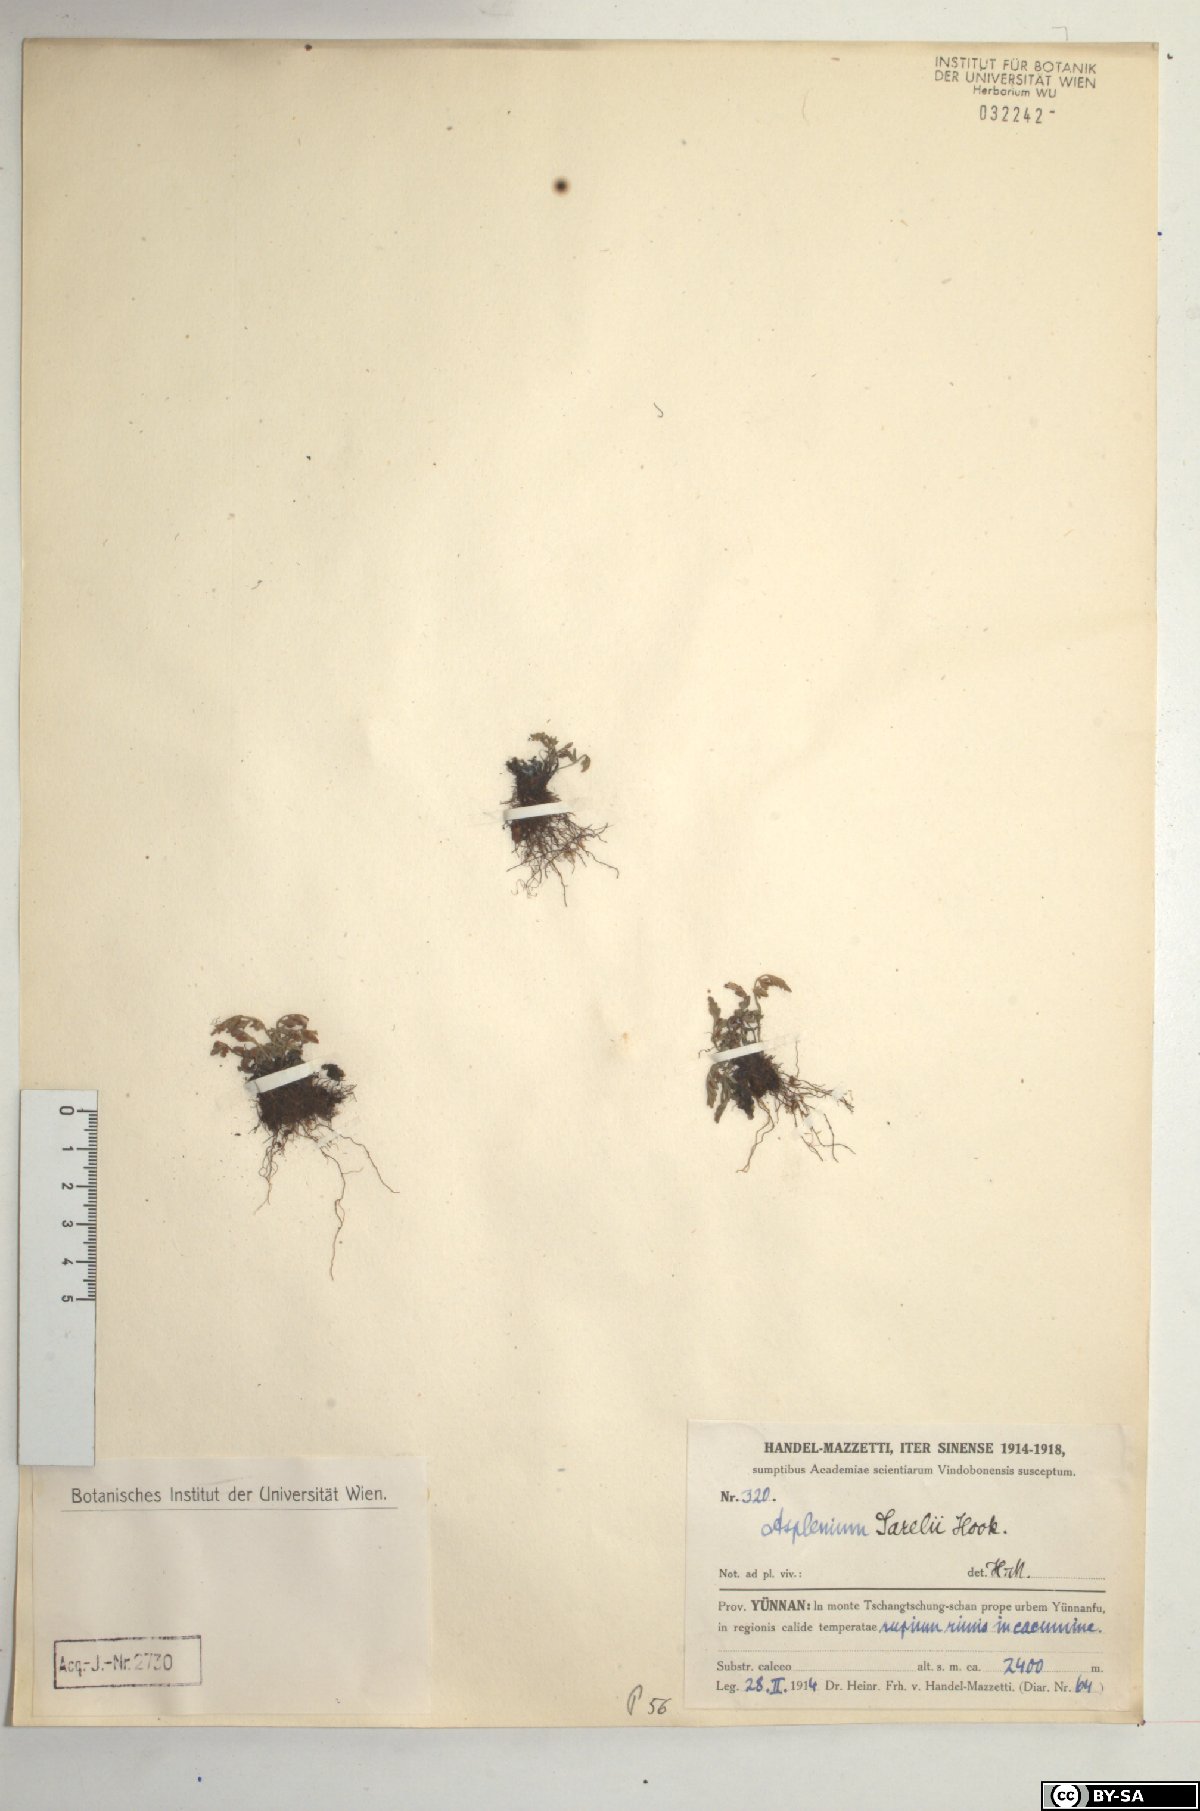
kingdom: Plantae
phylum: Tracheophyta
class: Polypodiopsida
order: Polypodiales
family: Aspleniaceae
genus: Asplenium
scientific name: Asplenium sarelii
